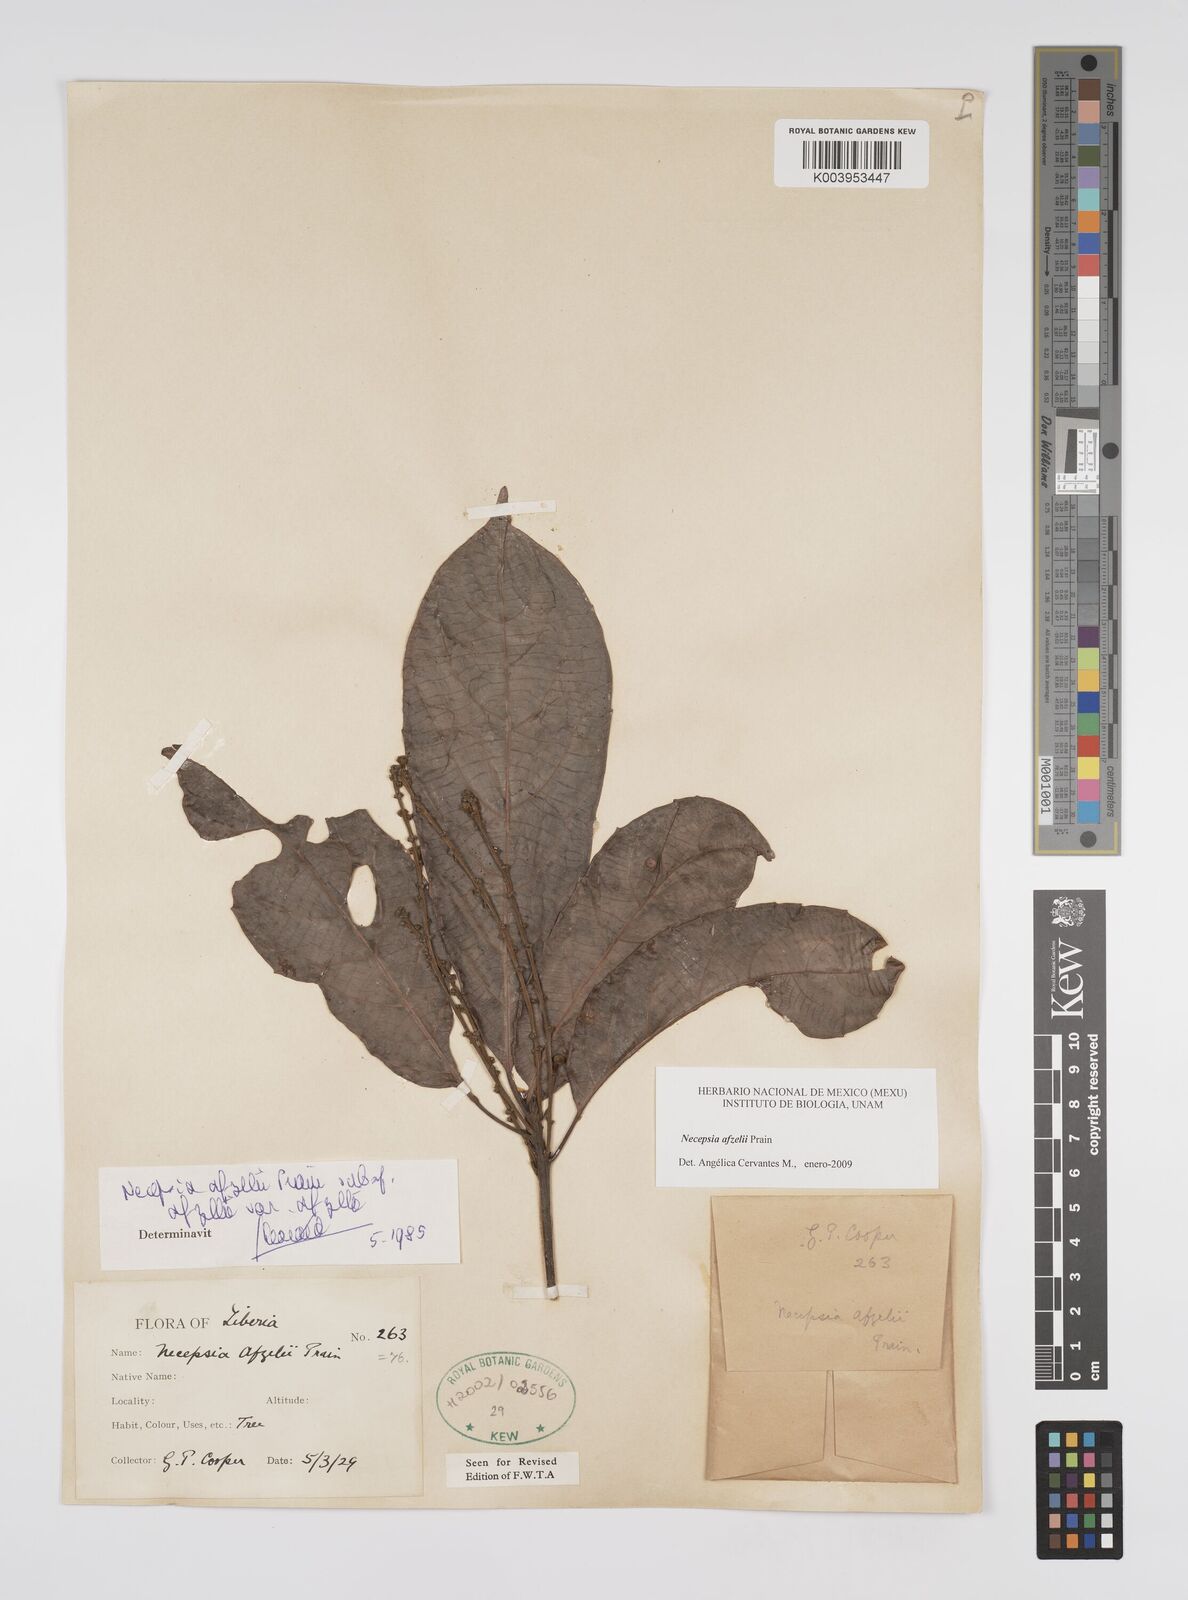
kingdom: Plantae
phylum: Tracheophyta
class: Magnoliopsida
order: Malpighiales
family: Euphorbiaceae
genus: Necepsia
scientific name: Necepsia afzelii
